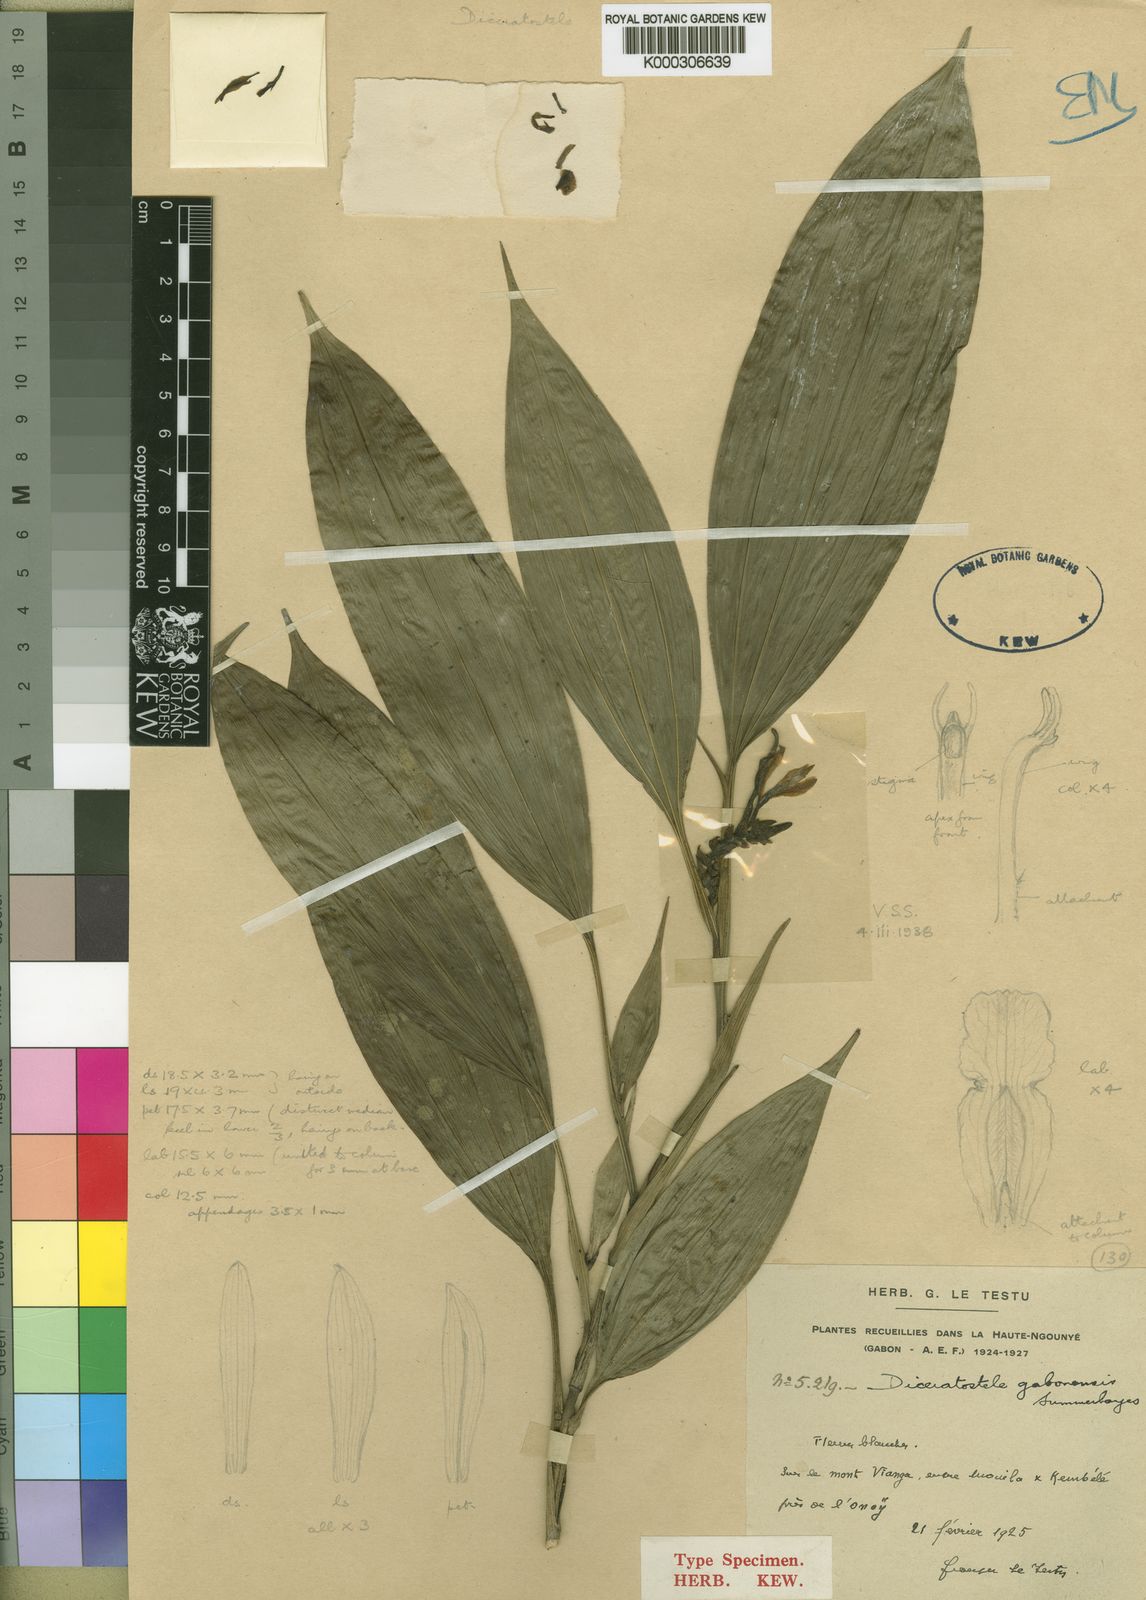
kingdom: Plantae
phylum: Tracheophyta
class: Liliopsida
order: Asparagales
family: Orchidaceae
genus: Diceratostele
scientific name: Diceratostele gabonensis
